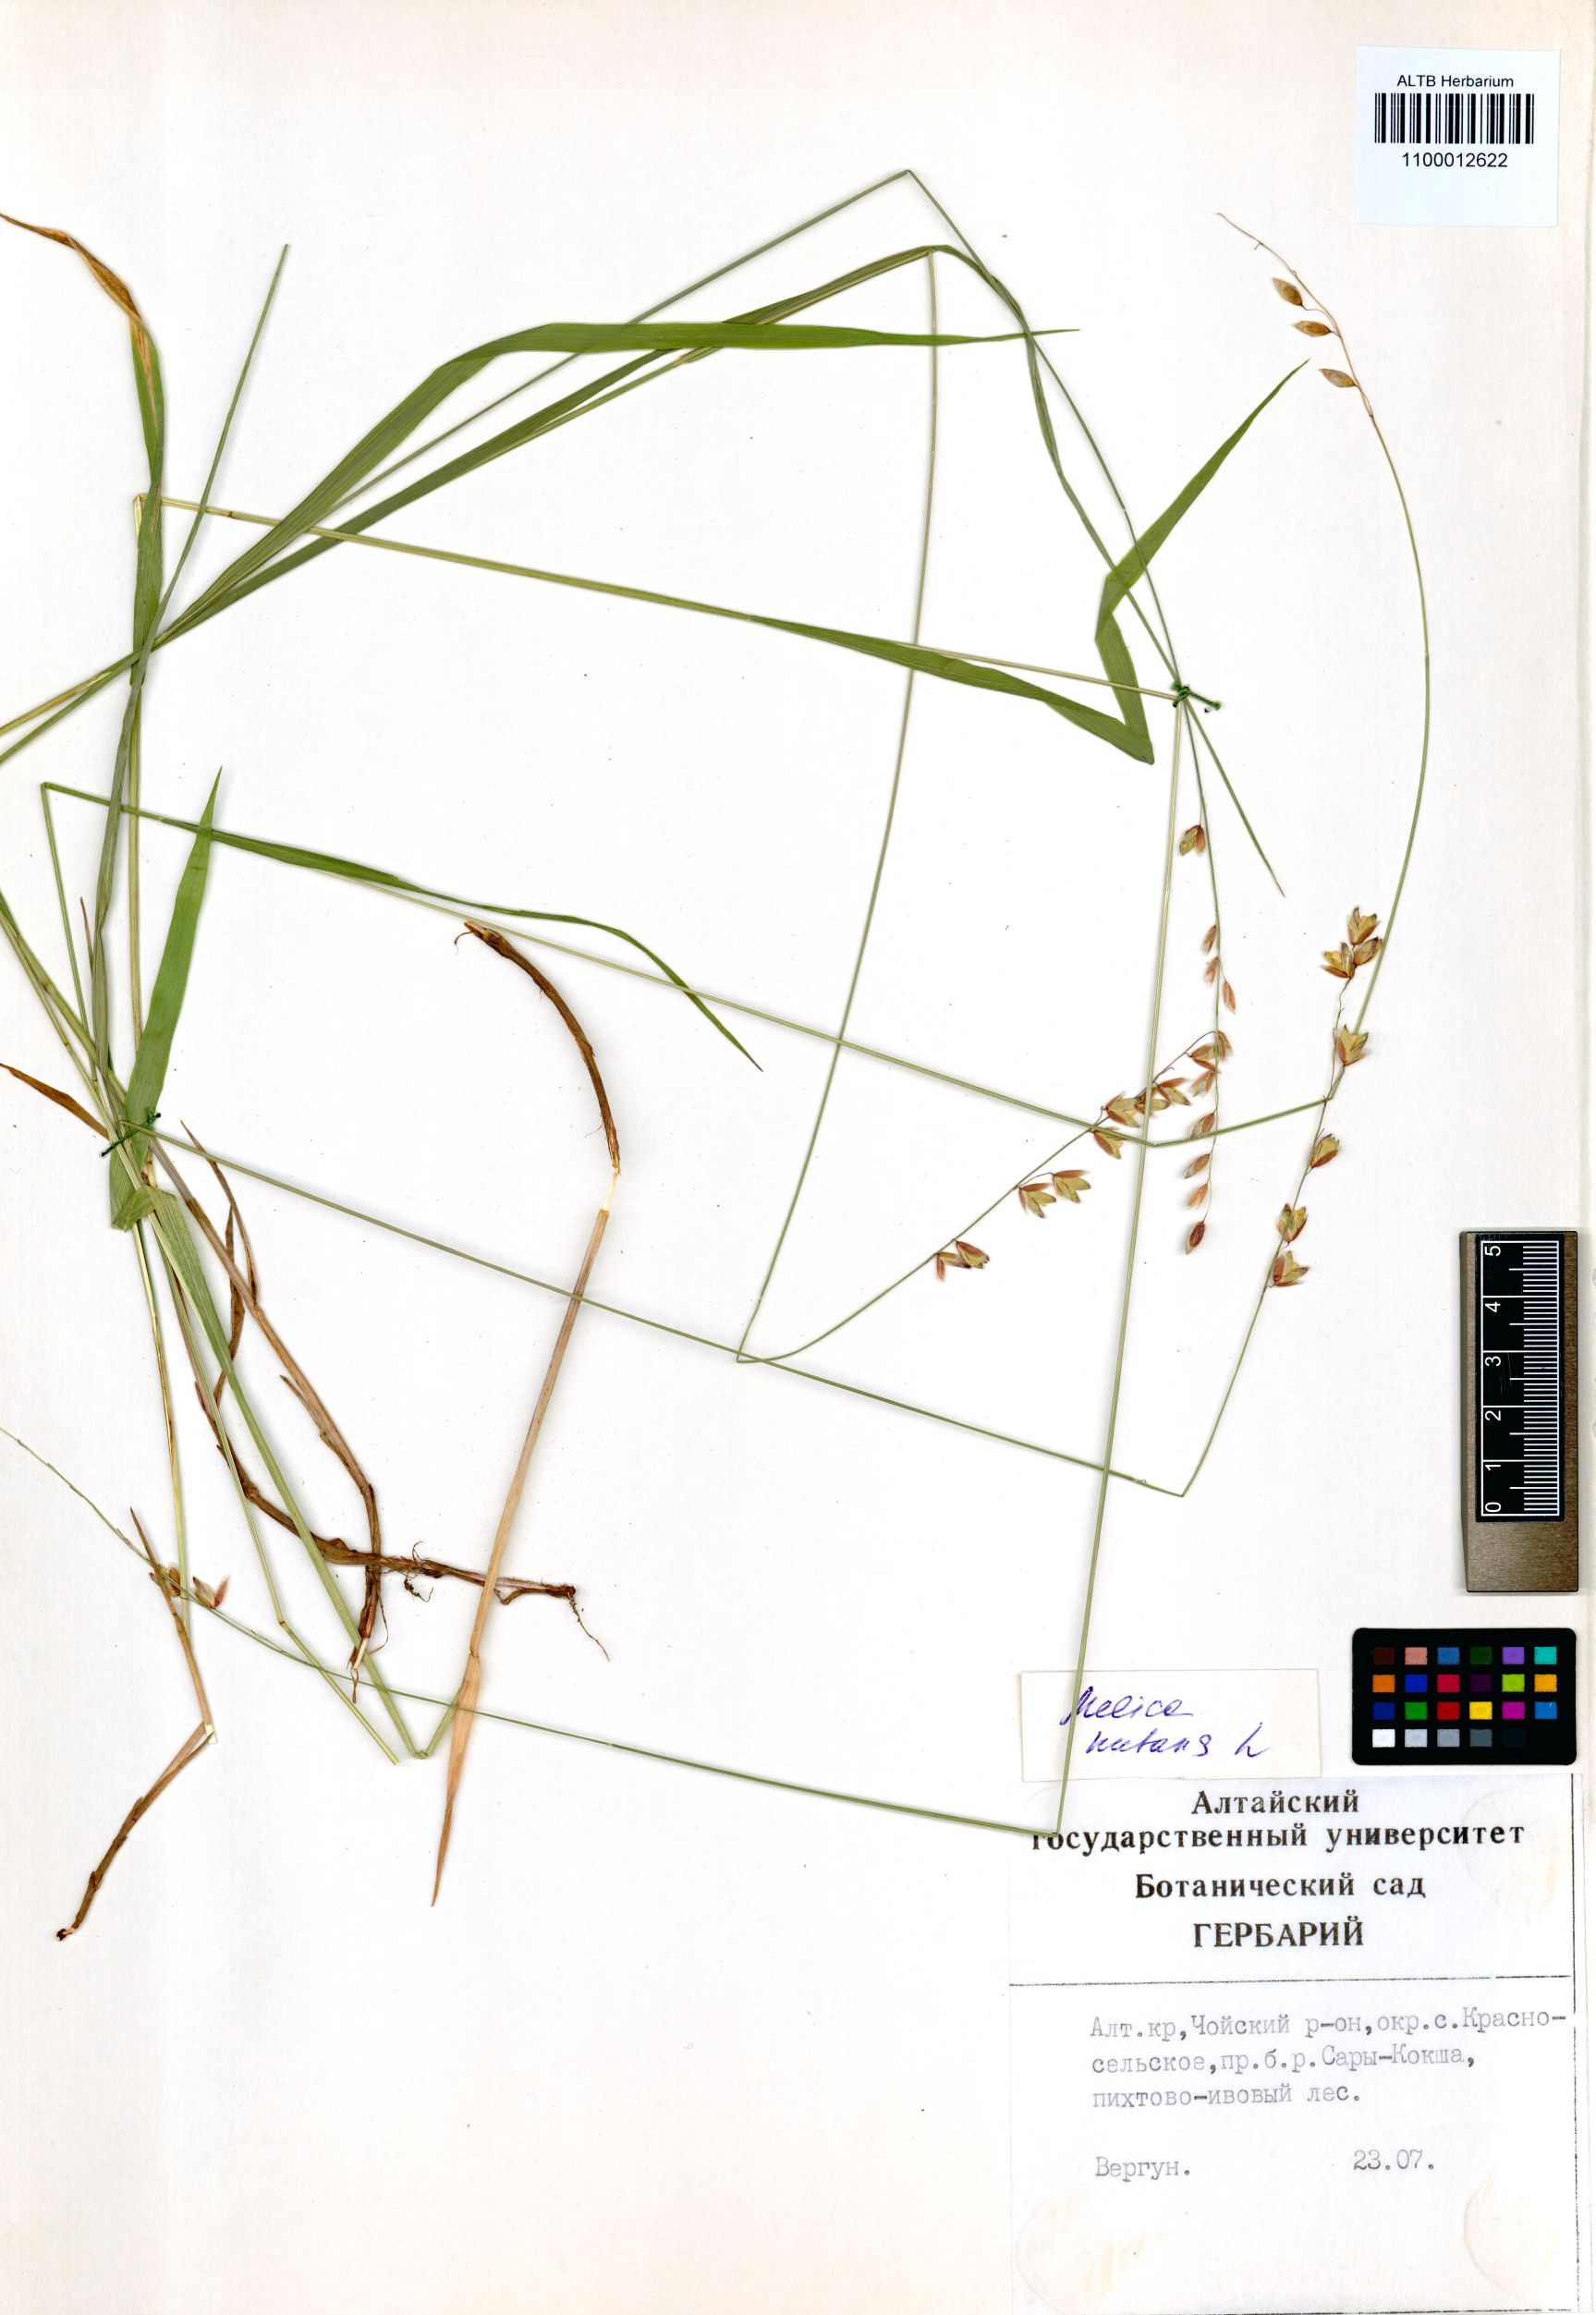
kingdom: Plantae
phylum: Tracheophyta
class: Liliopsida
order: Poales
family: Poaceae
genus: Melica
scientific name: Melica nutans
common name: Mountain melick
